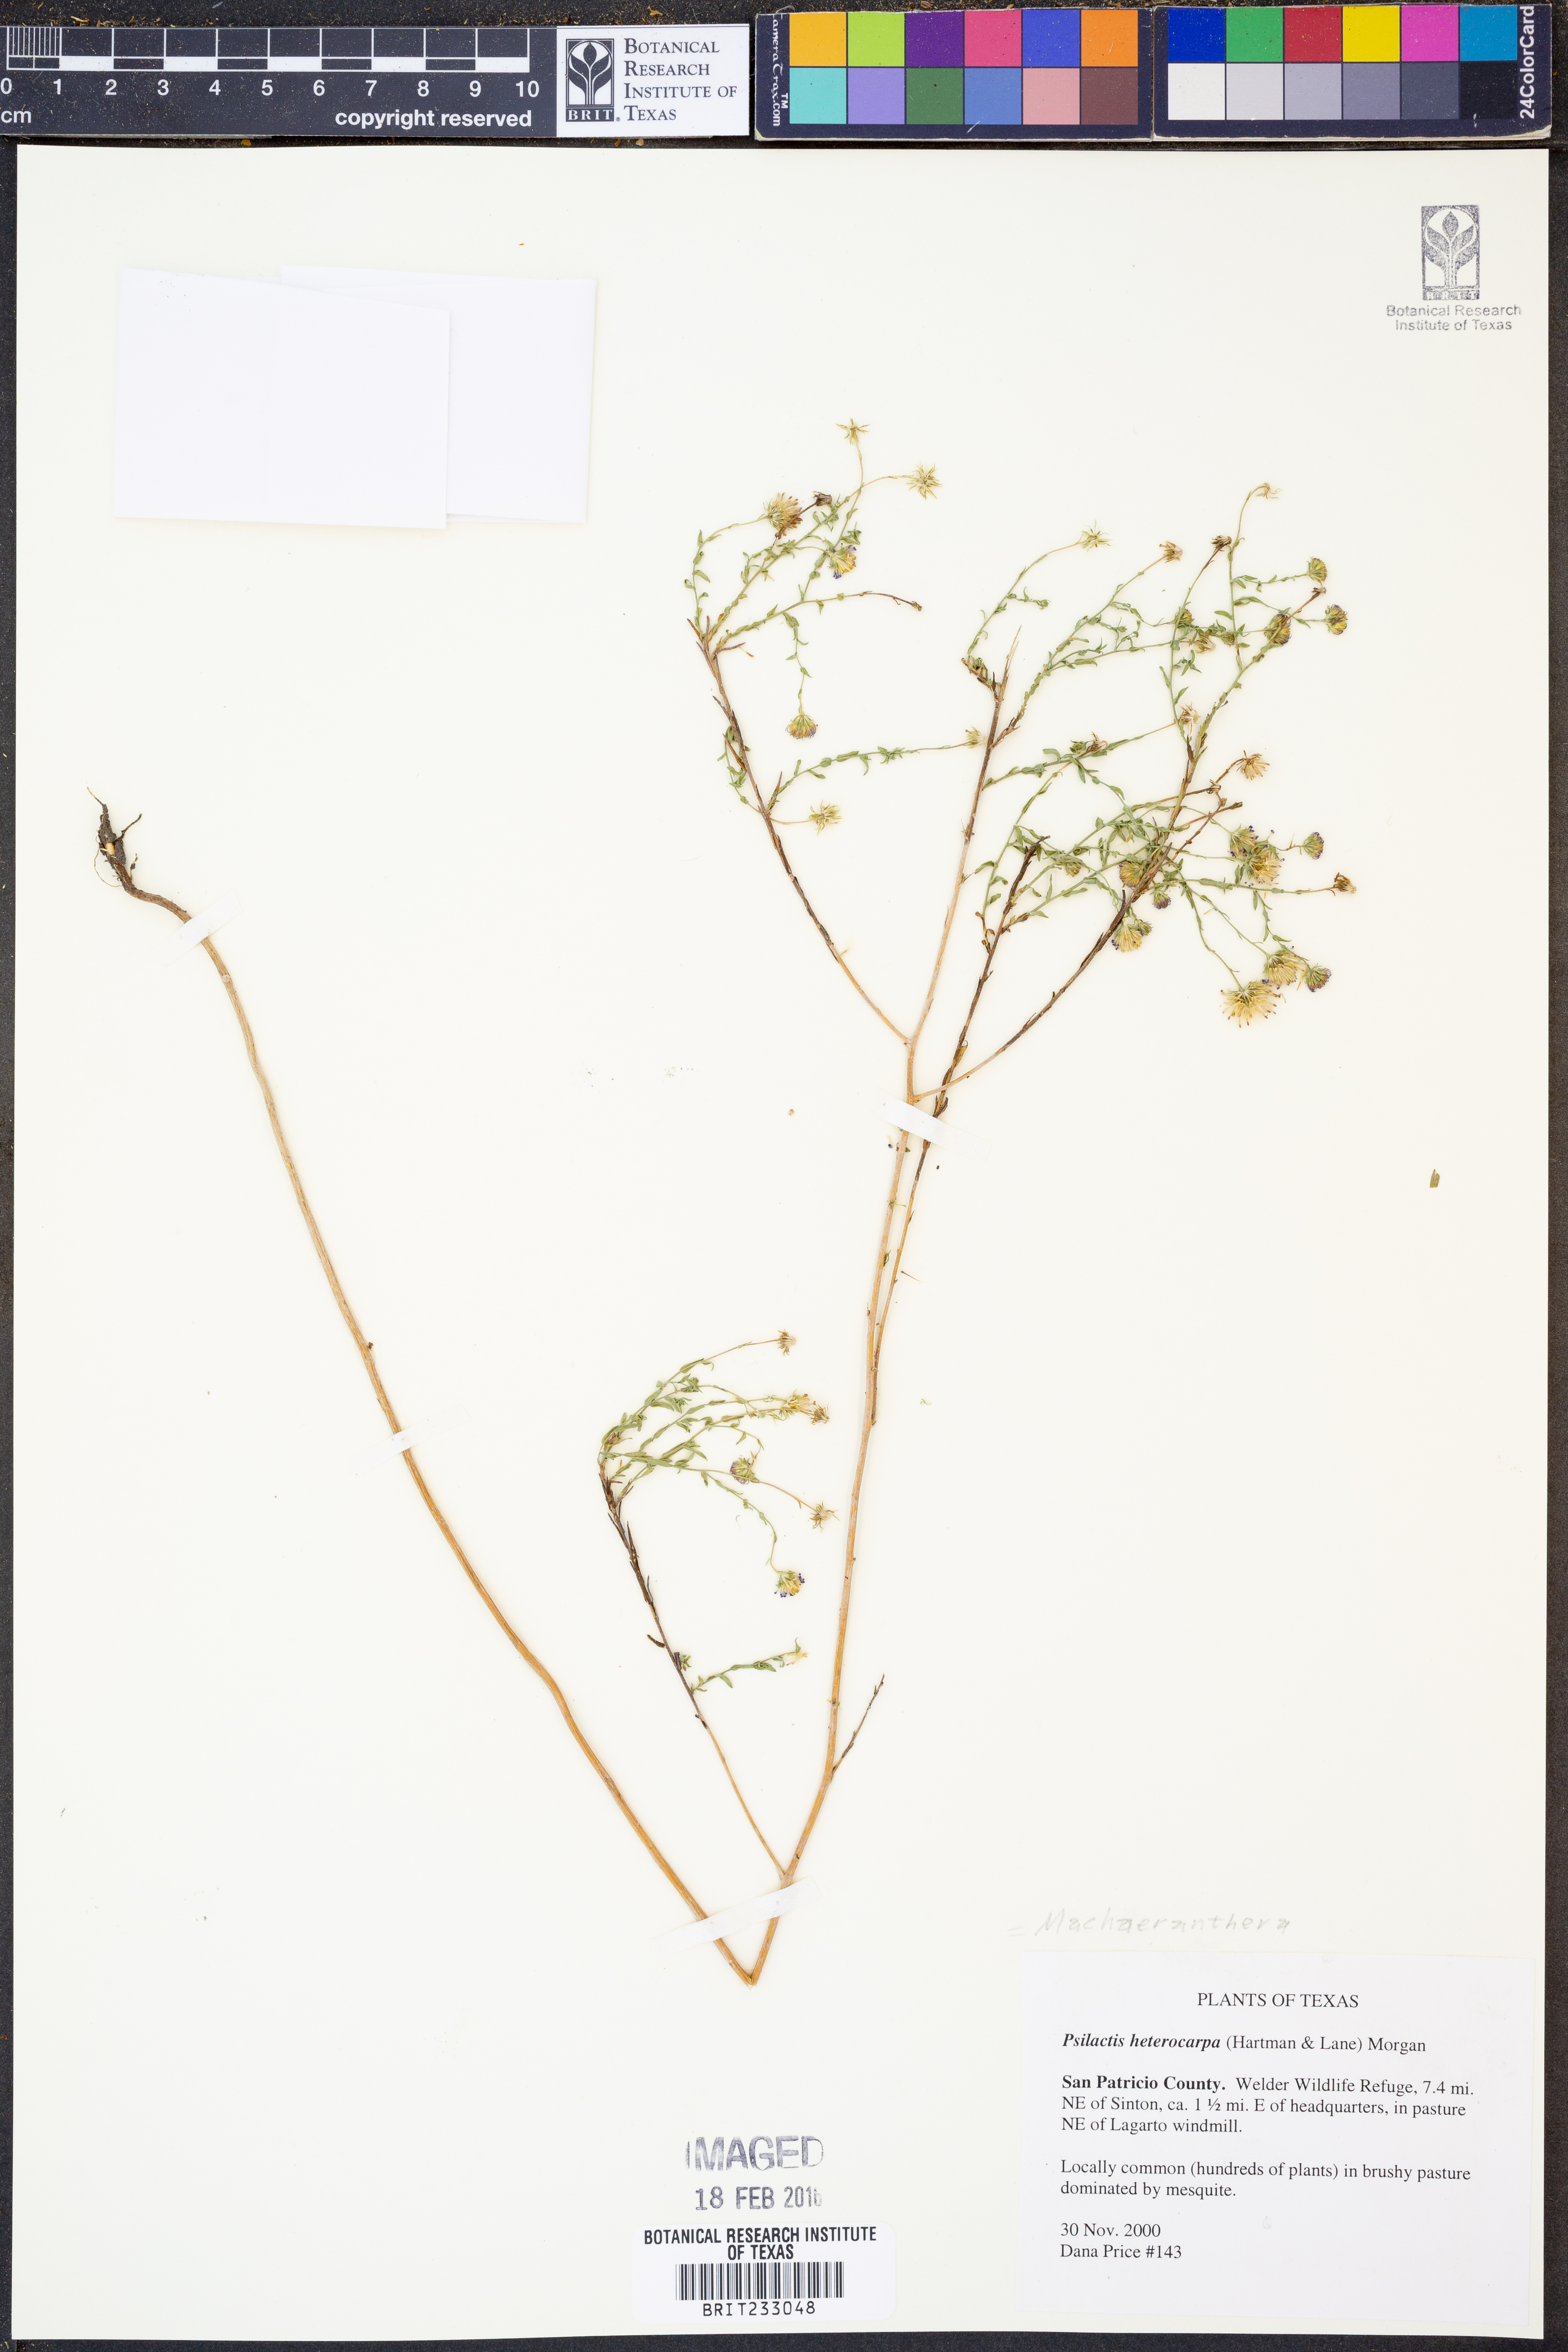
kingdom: Plantae
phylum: Tracheophyta
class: Magnoliopsida
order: Asterales
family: Asteraceae
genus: Psilactis
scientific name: Psilactis heterocarpa
